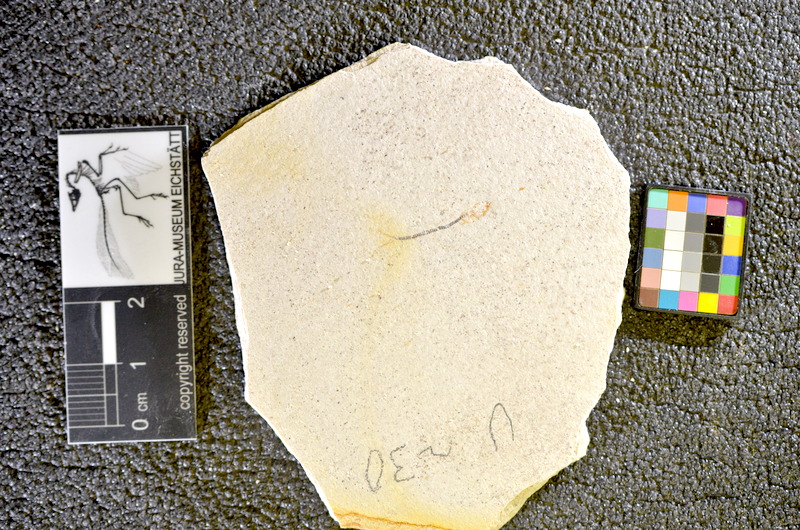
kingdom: Animalia
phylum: Chordata
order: Salmoniformes
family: Orthogonikleithridae
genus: Orthogonikleithrus
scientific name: Orthogonikleithrus hoelli
